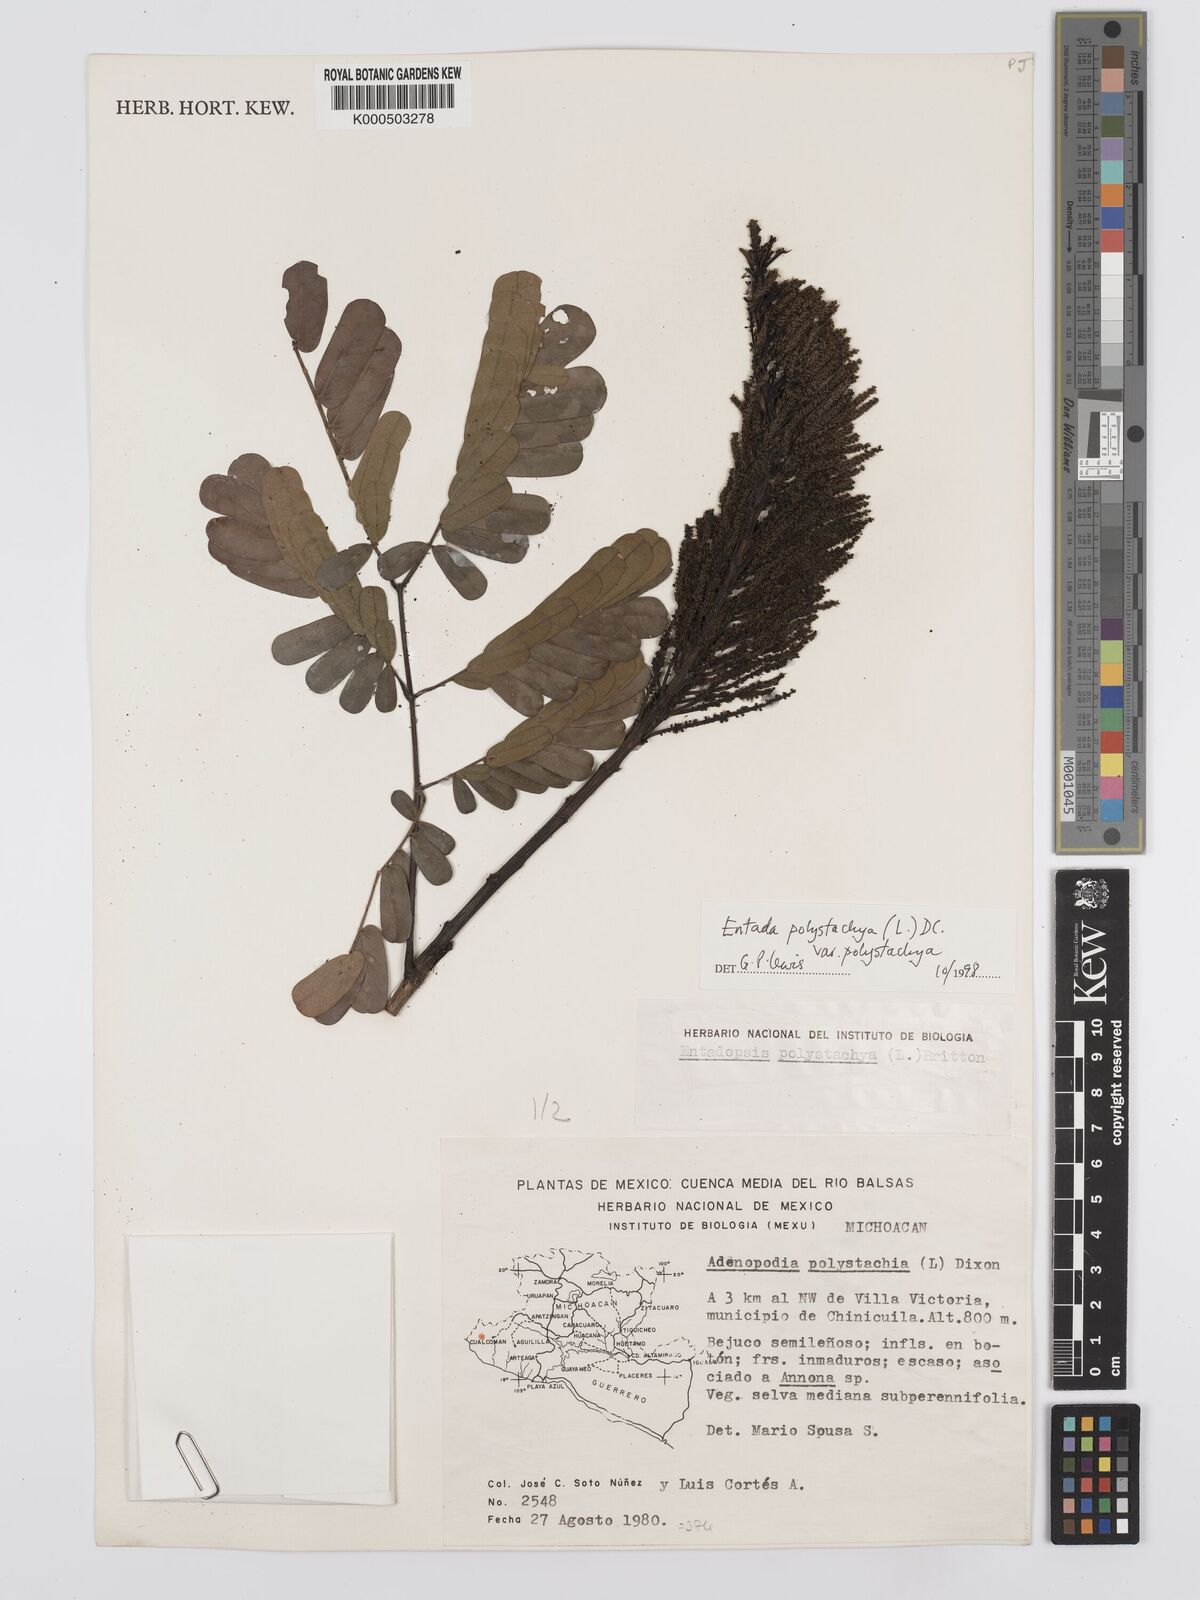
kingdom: Plantae
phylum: Tracheophyta
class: Magnoliopsida
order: Fabales
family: Fabaceae
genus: Entada
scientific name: Entada polystachya
